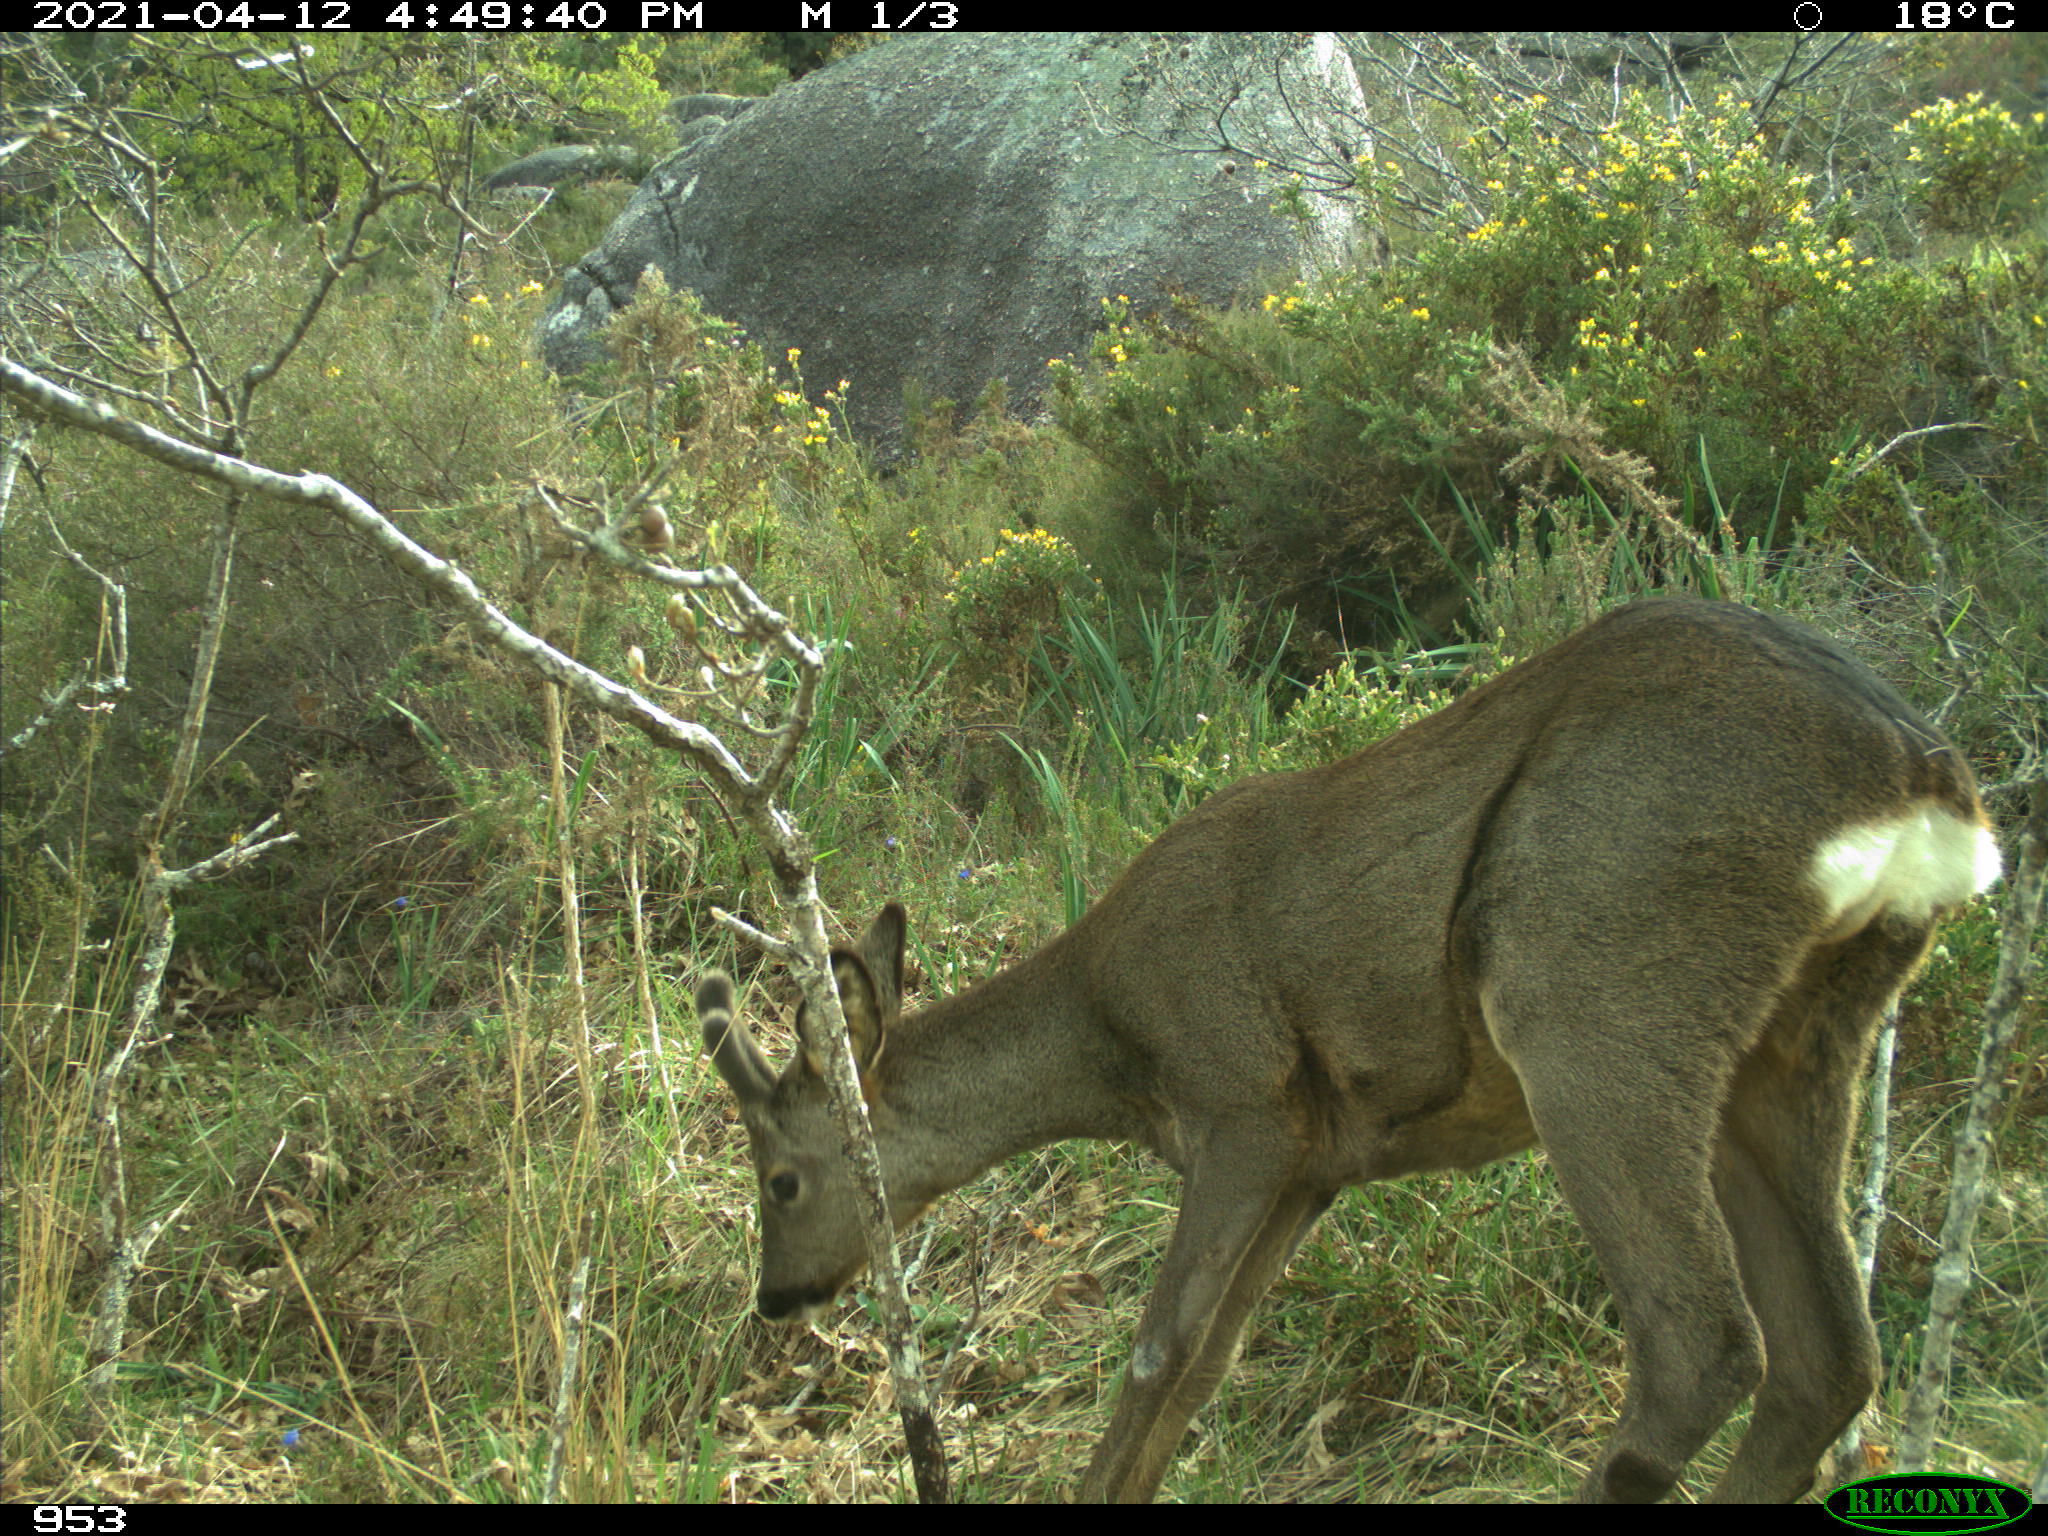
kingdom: Animalia
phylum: Chordata
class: Mammalia
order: Artiodactyla
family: Cervidae
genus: Capreolus
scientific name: Capreolus capreolus
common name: Western roe deer
